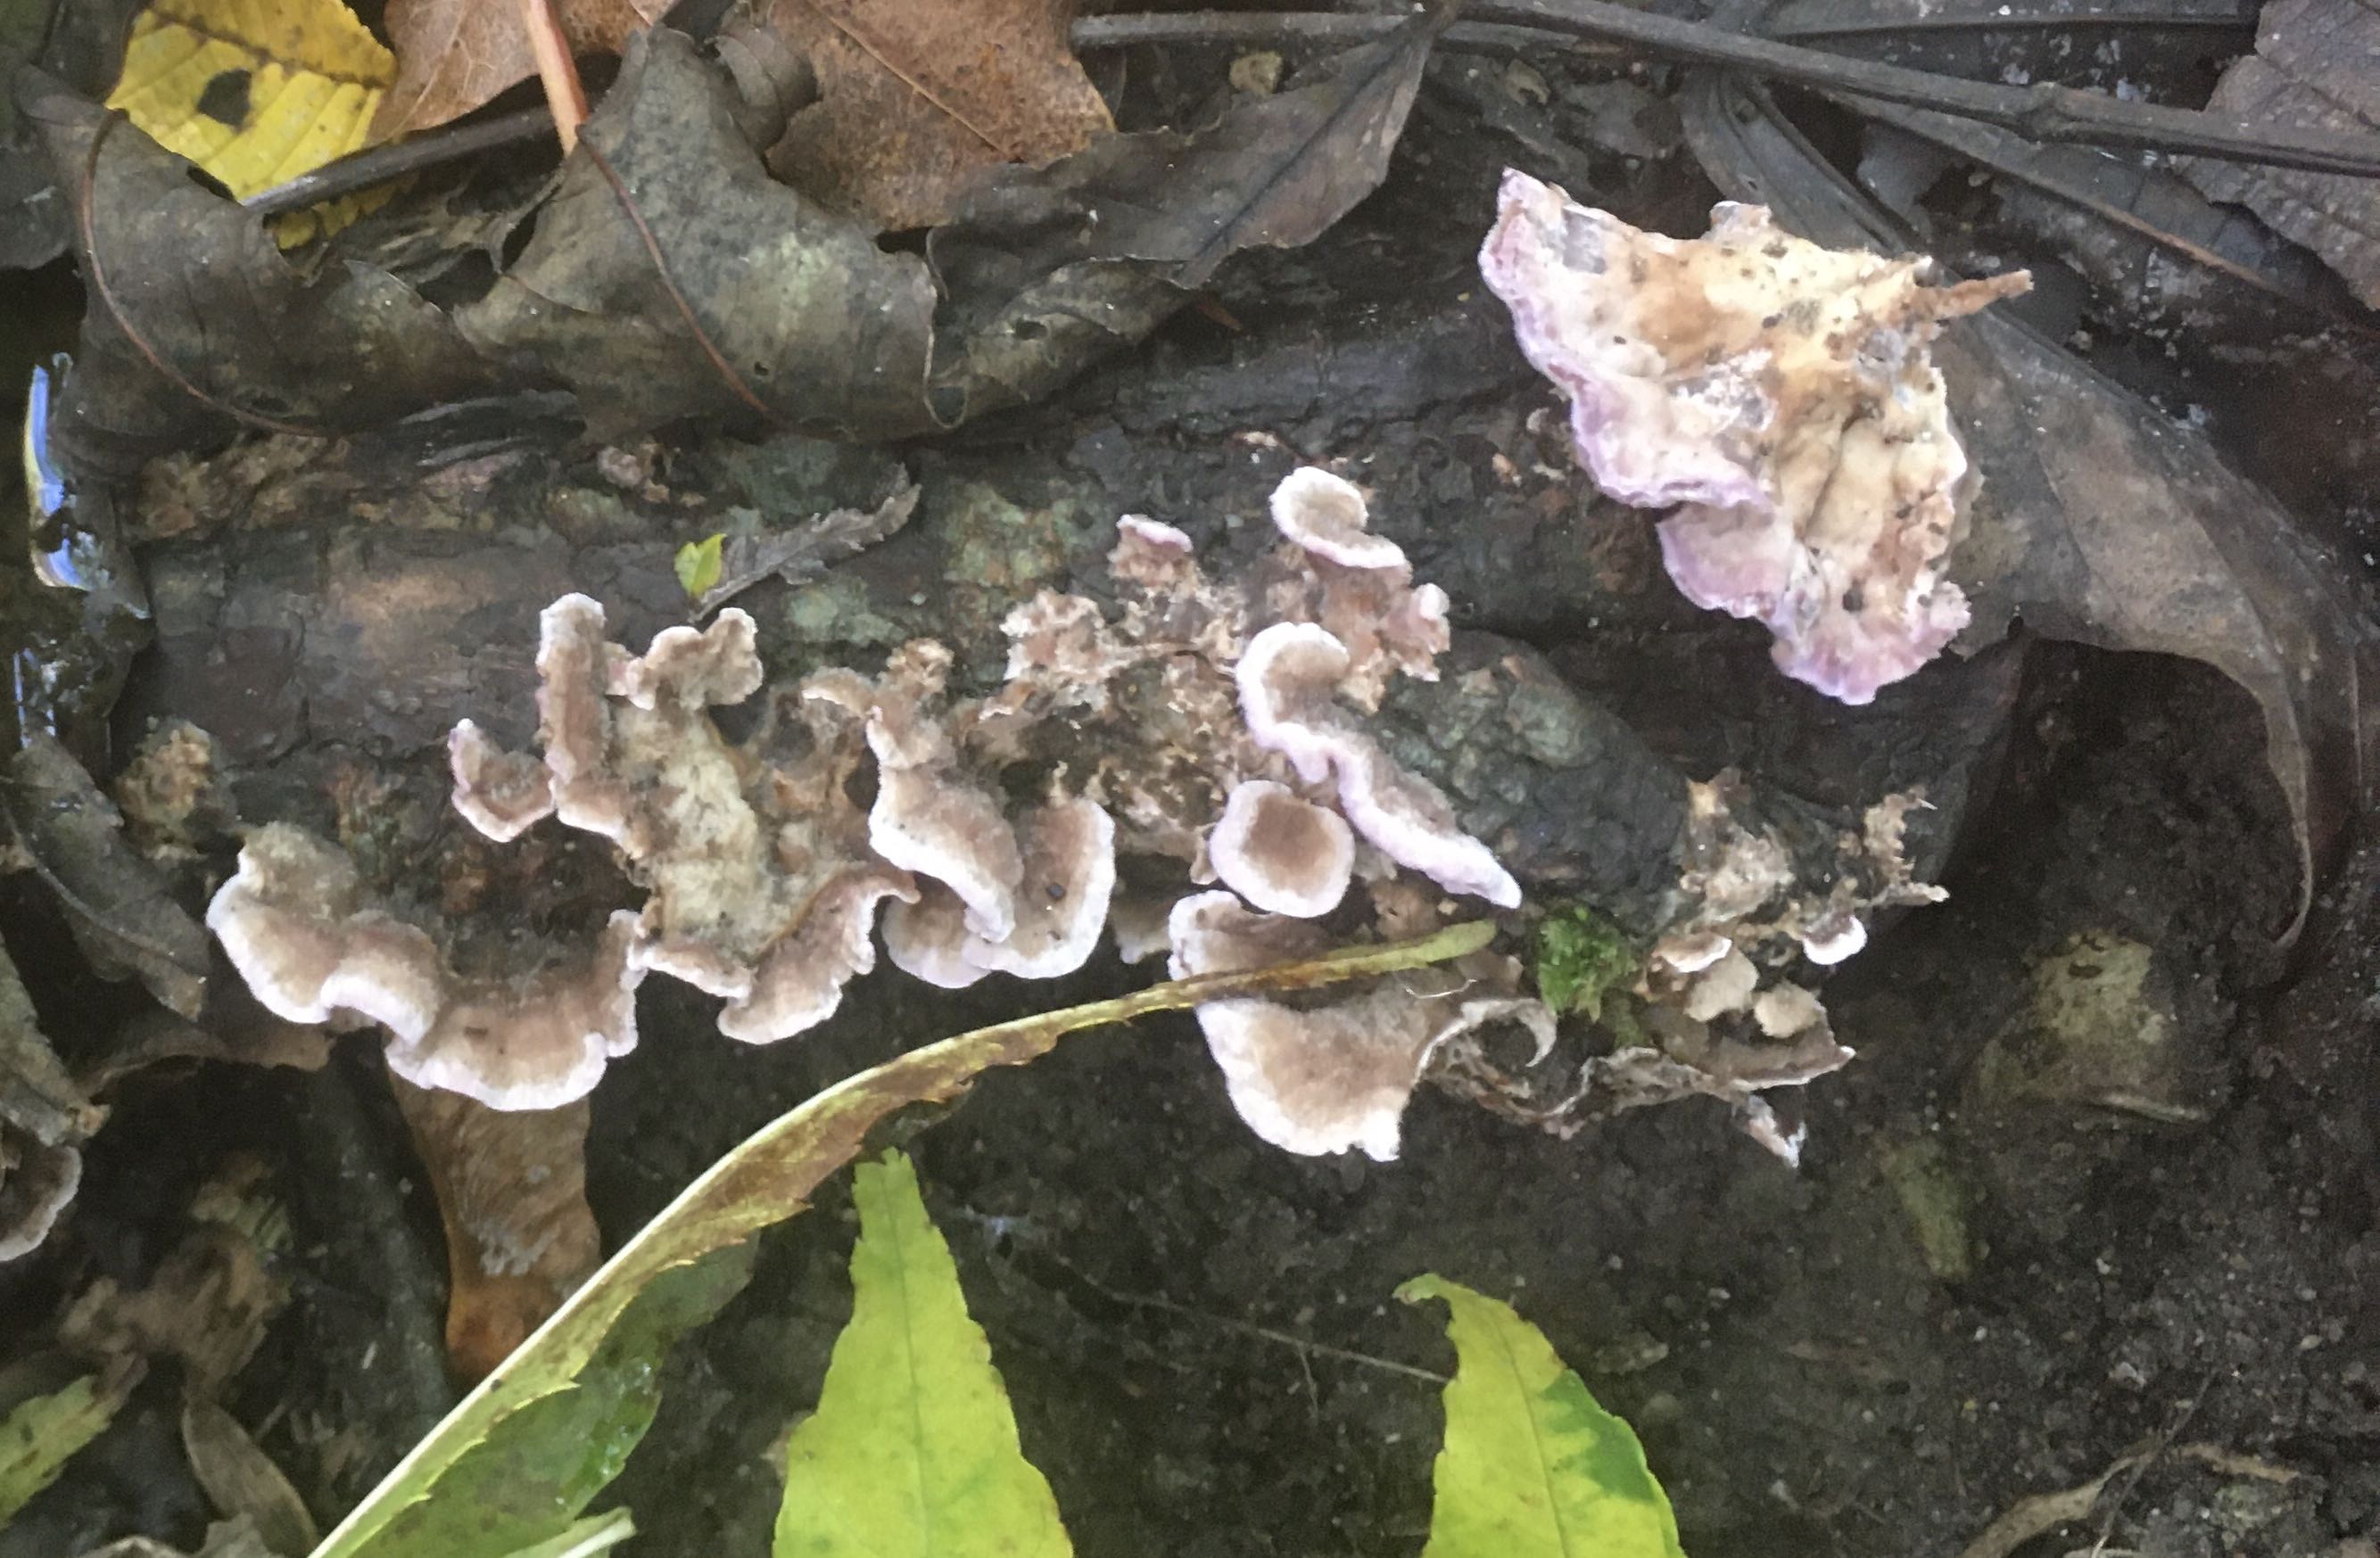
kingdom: Fungi
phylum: Basidiomycota
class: Agaricomycetes
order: Agaricales
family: Cyphellaceae
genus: Chondrostereum
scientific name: Chondrostereum purpureum
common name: purpurlædersvamp
